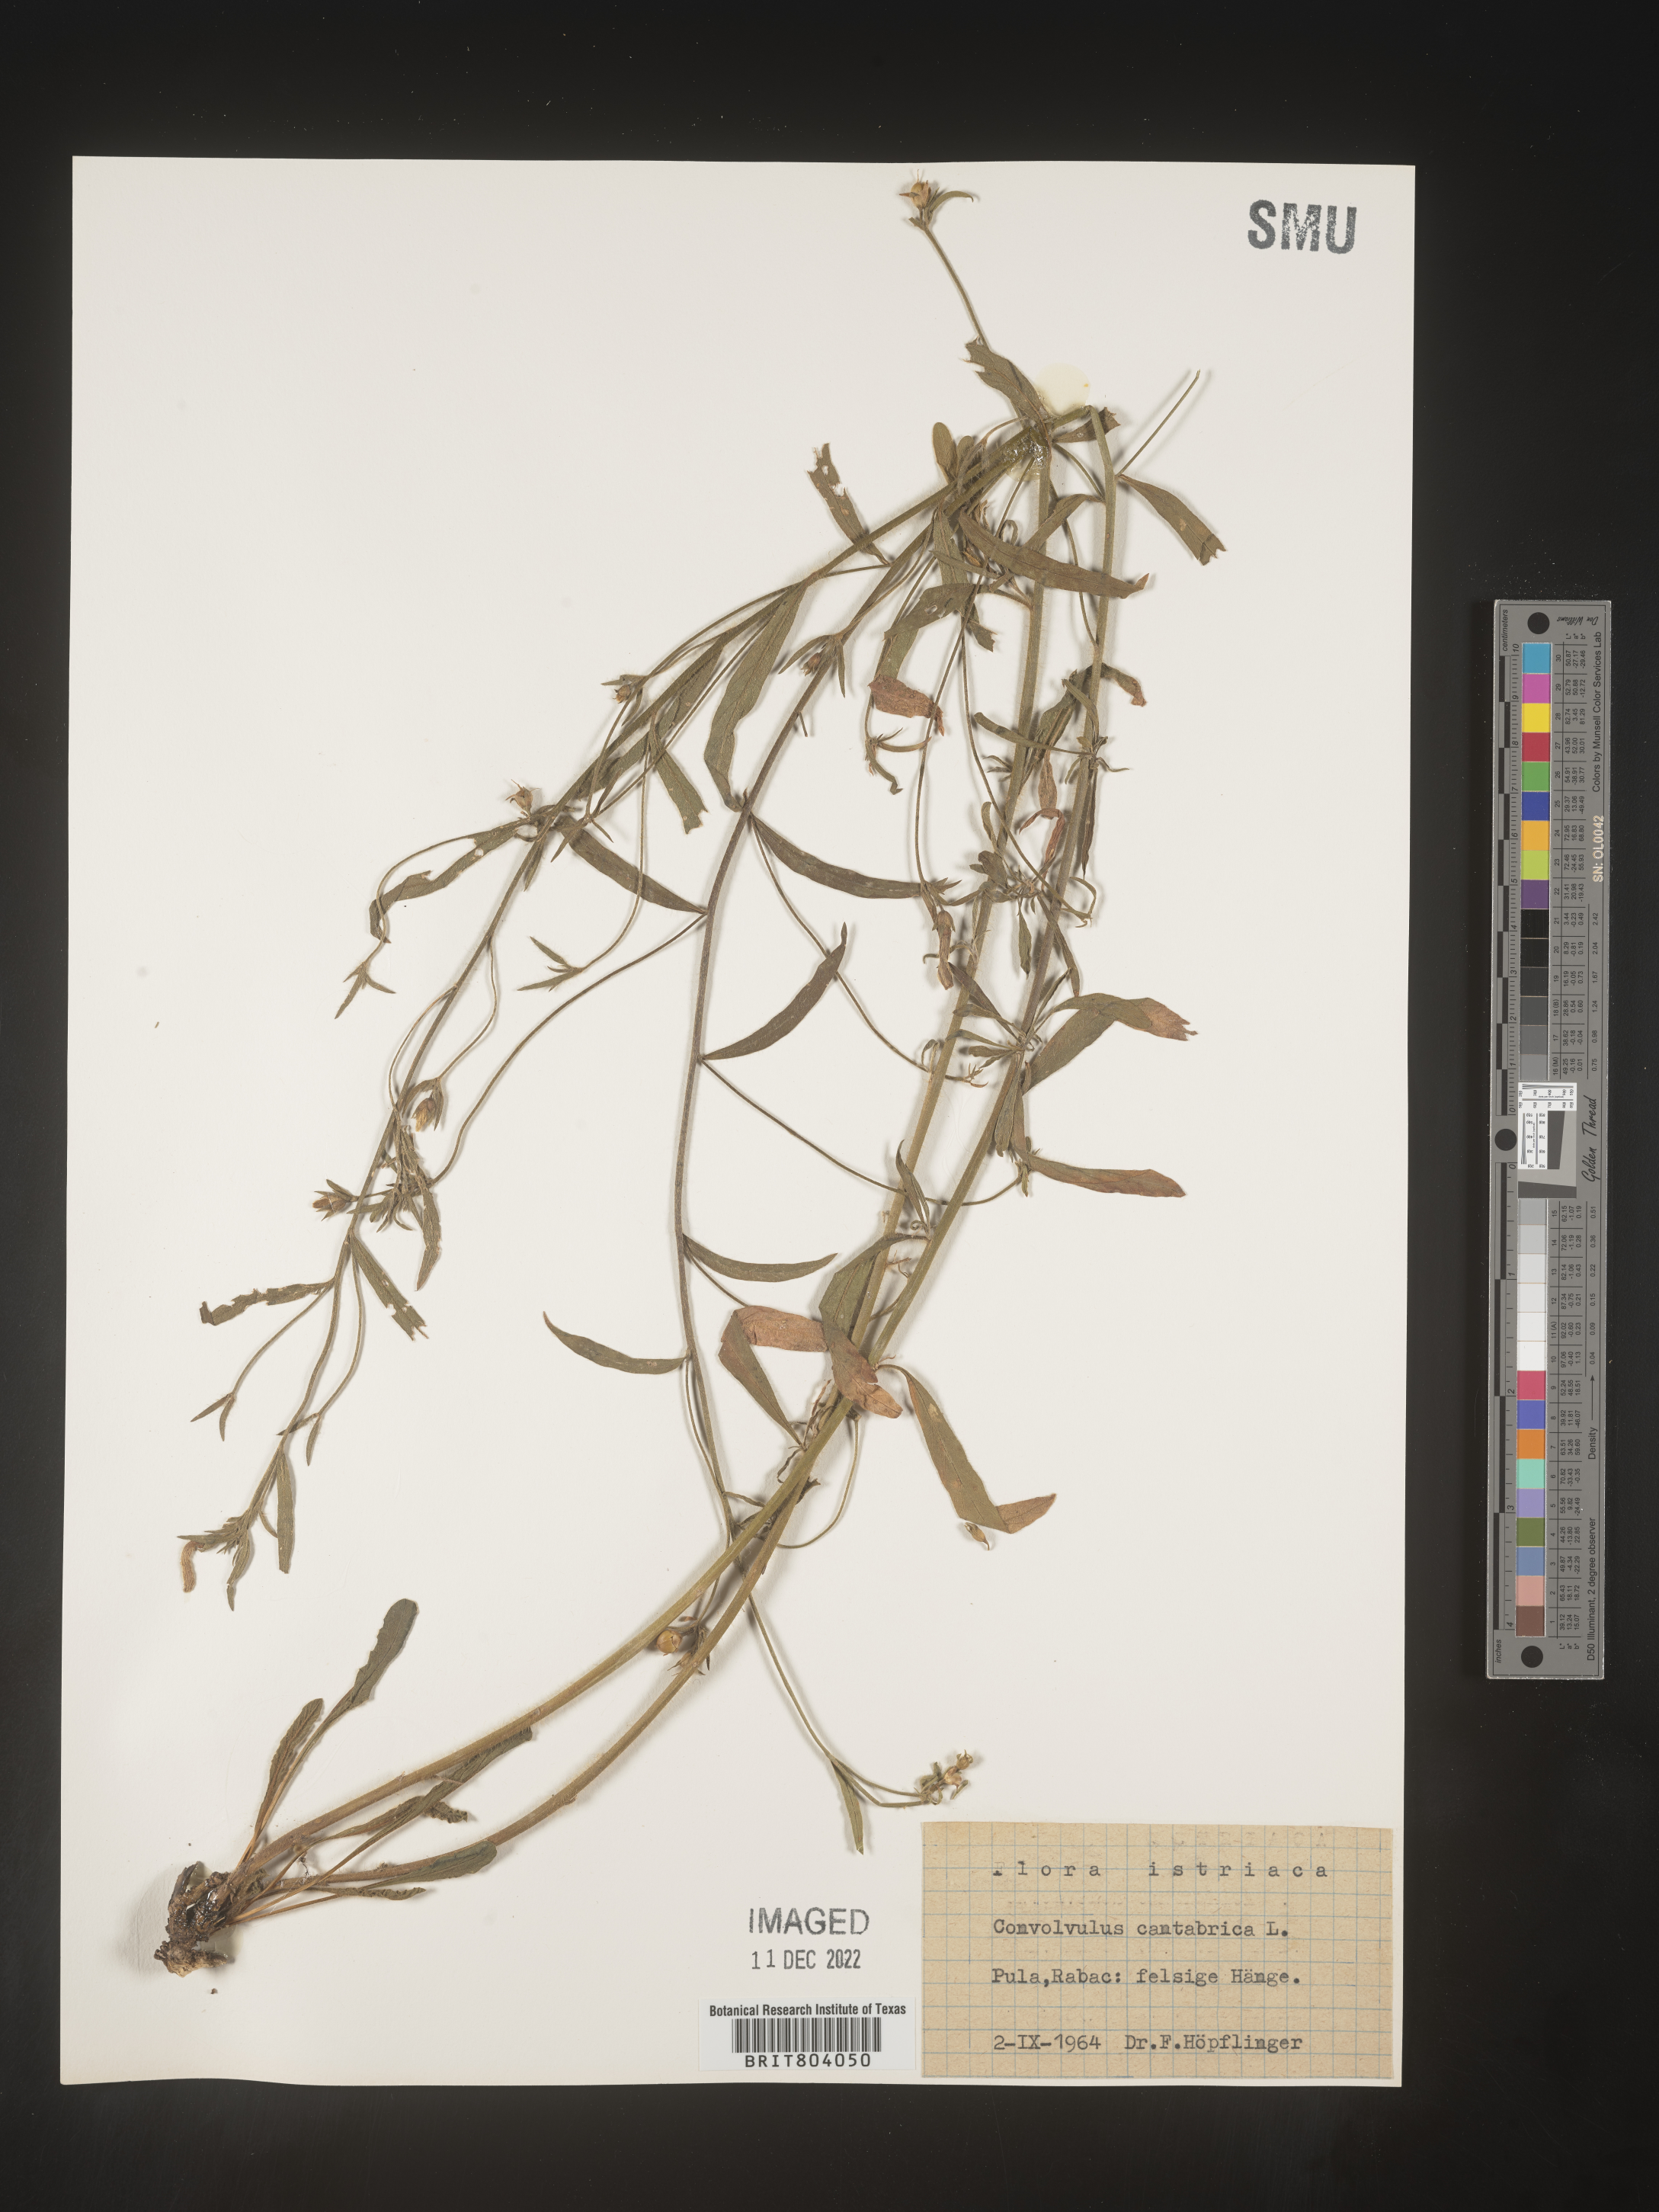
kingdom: Plantae
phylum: Tracheophyta
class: Magnoliopsida
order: Solanales
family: Convolvulaceae
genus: Convolvulus
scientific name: Convolvulus
